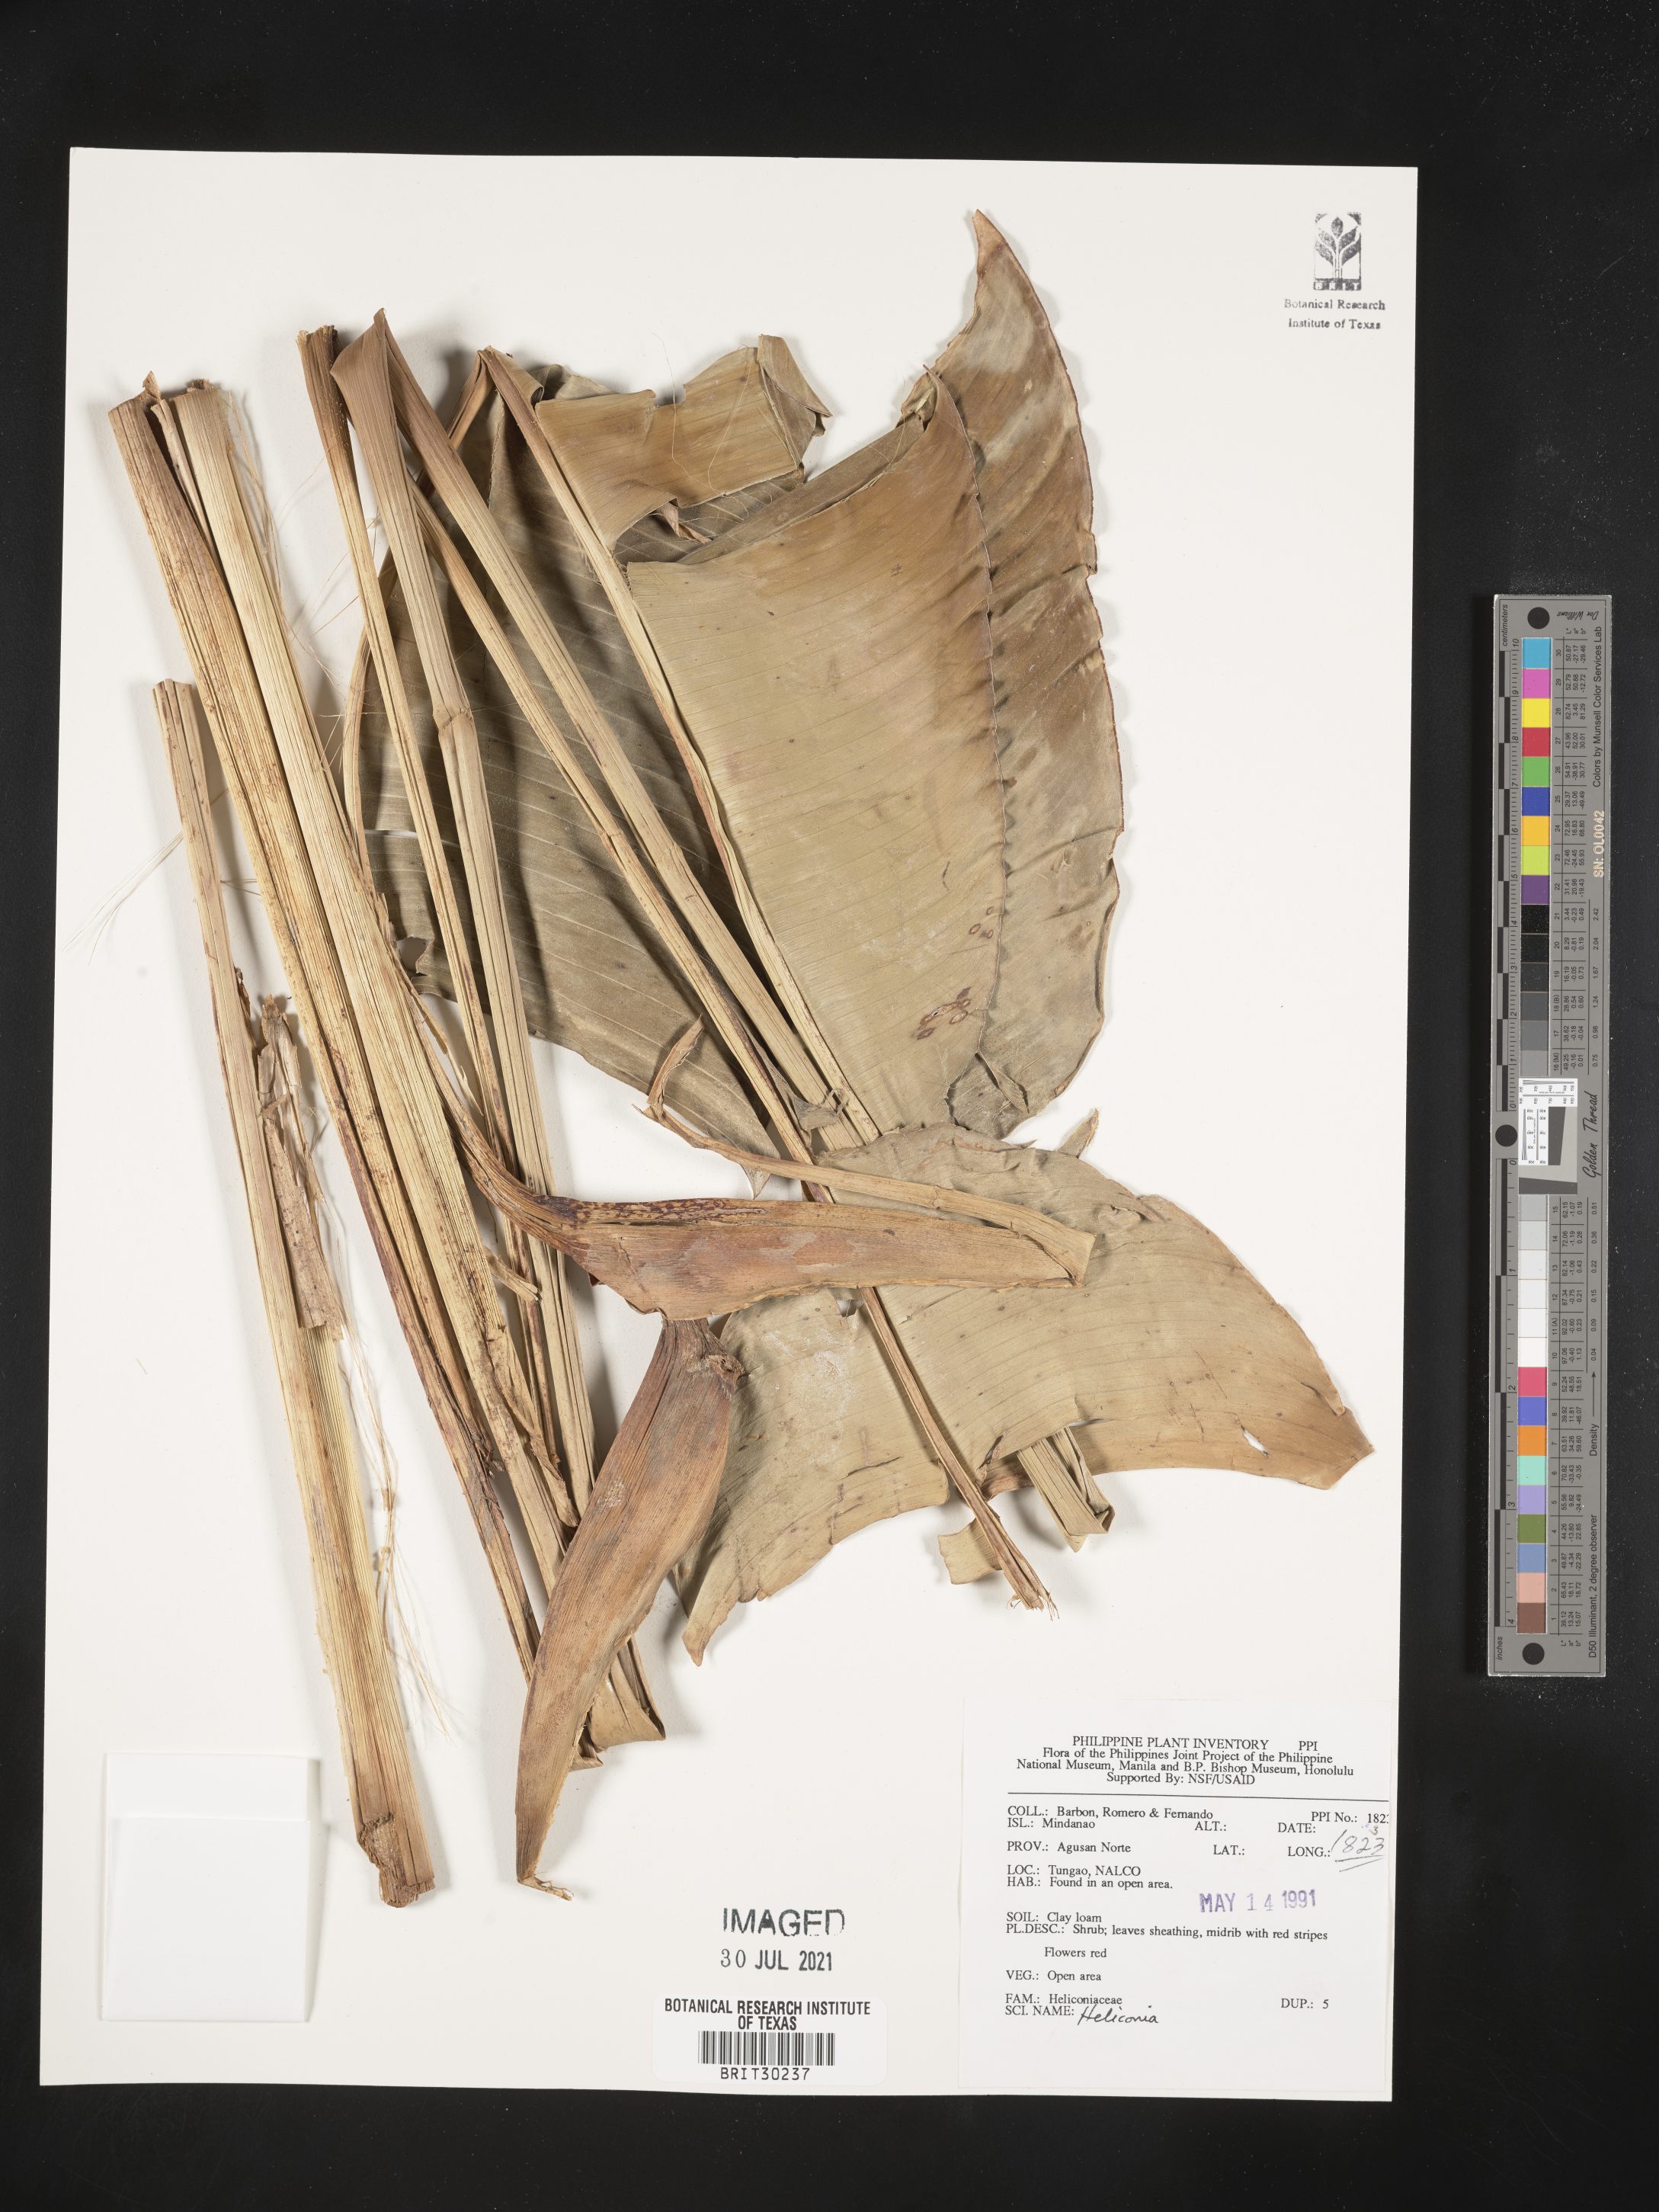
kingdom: Plantae
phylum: Tracheophyta
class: Liliopsida
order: Zingiberales
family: Heliconiaceae
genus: Heliconia
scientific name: Heliconia
